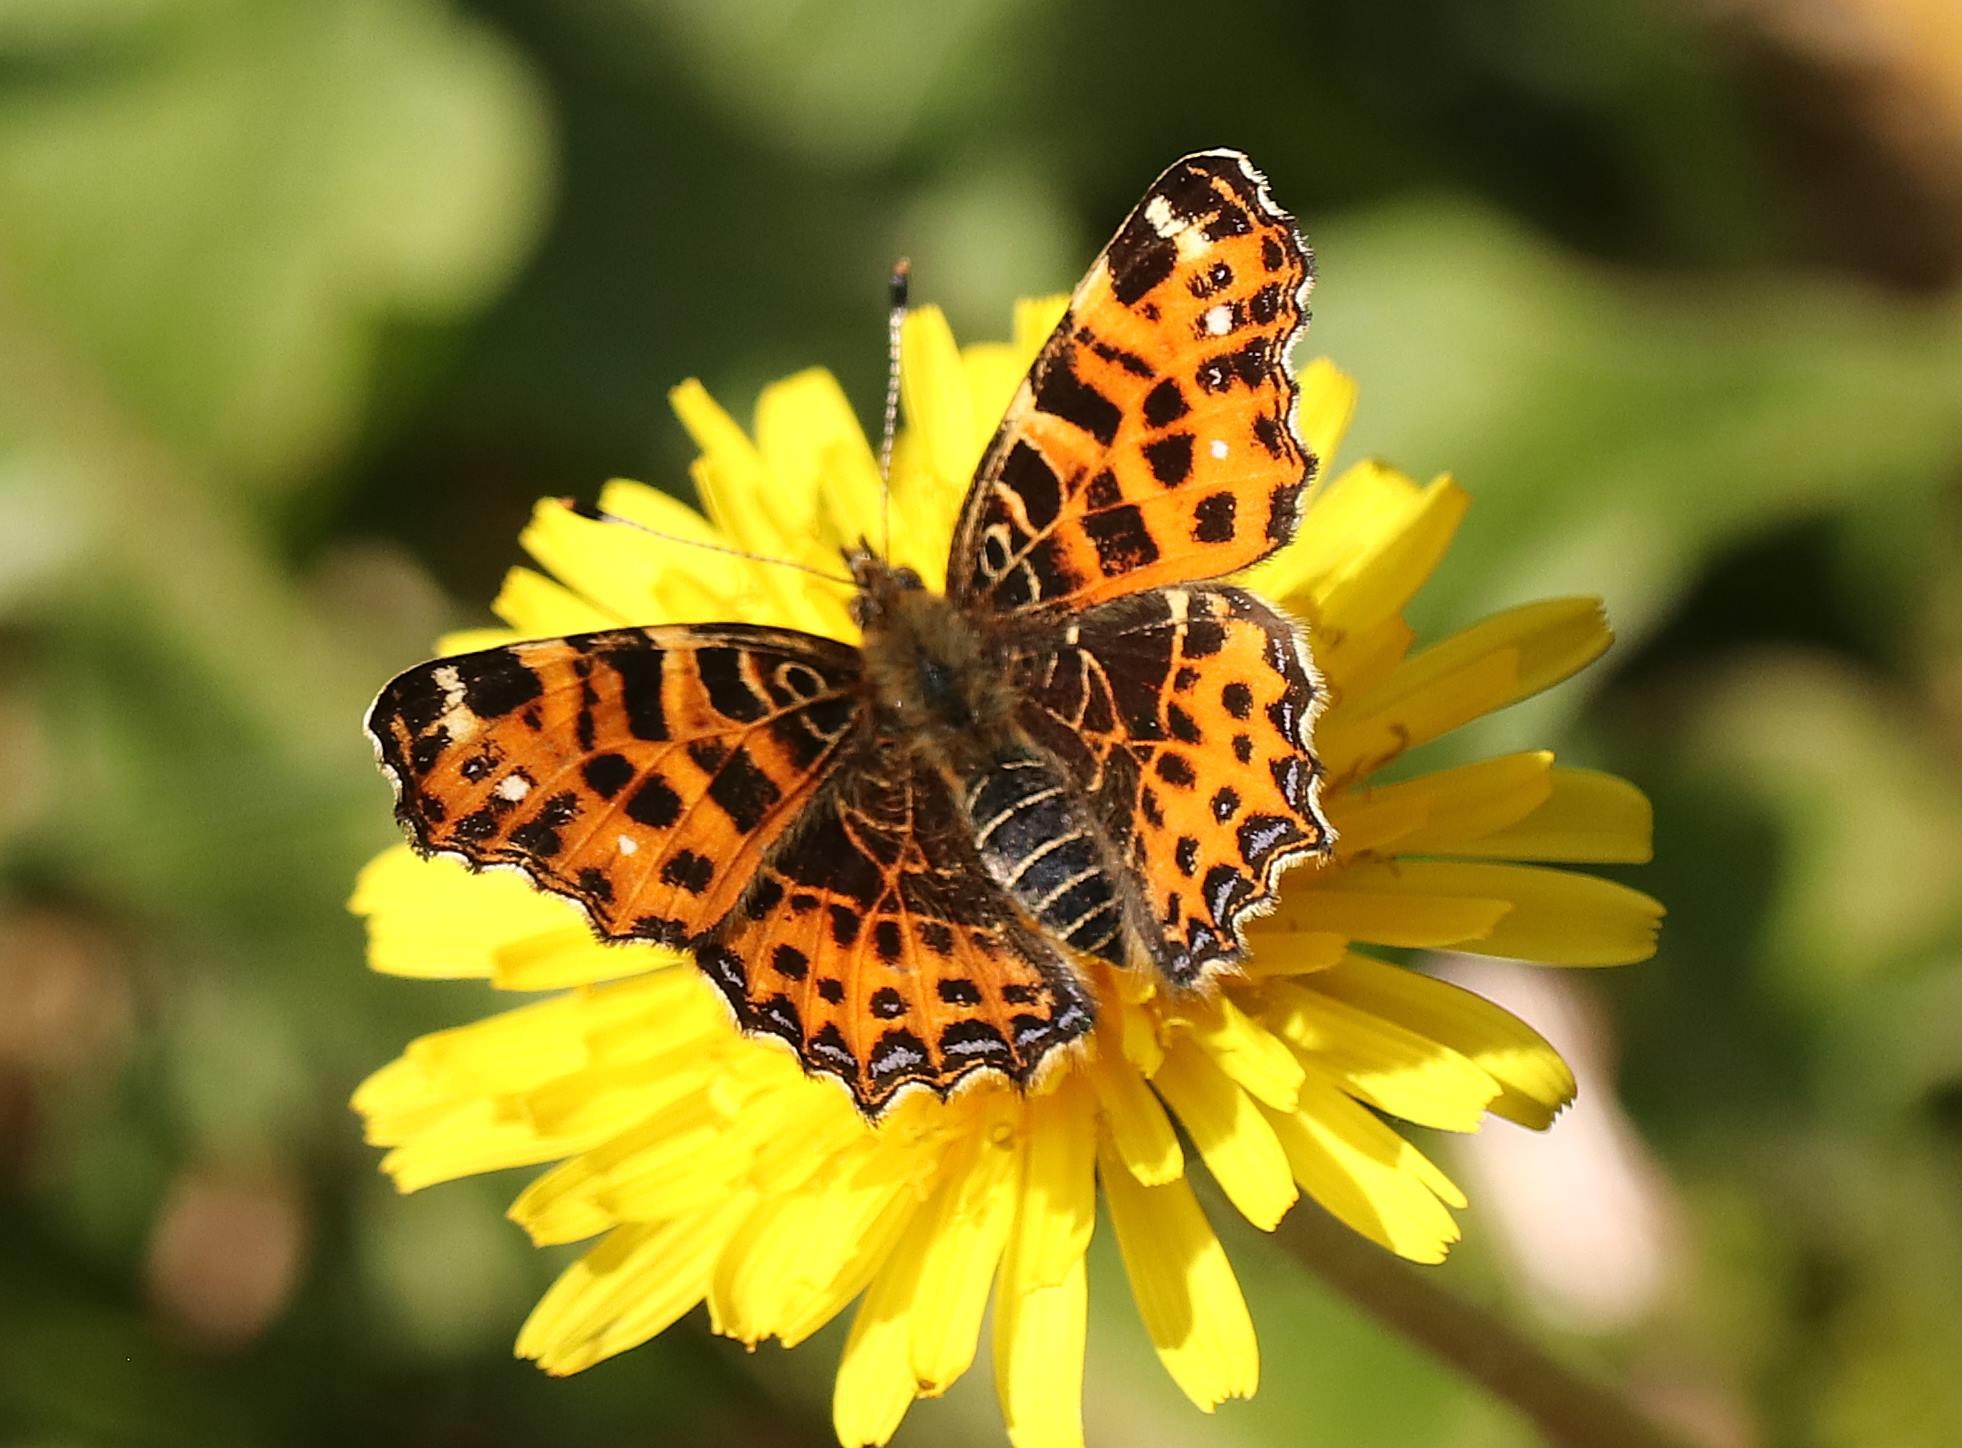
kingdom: Animalia
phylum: Arthropoda
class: Insecta
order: Lepidoptera
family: Nymphalidae
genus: Araschnia
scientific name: Araschnia levana
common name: Nældesommerfugl
